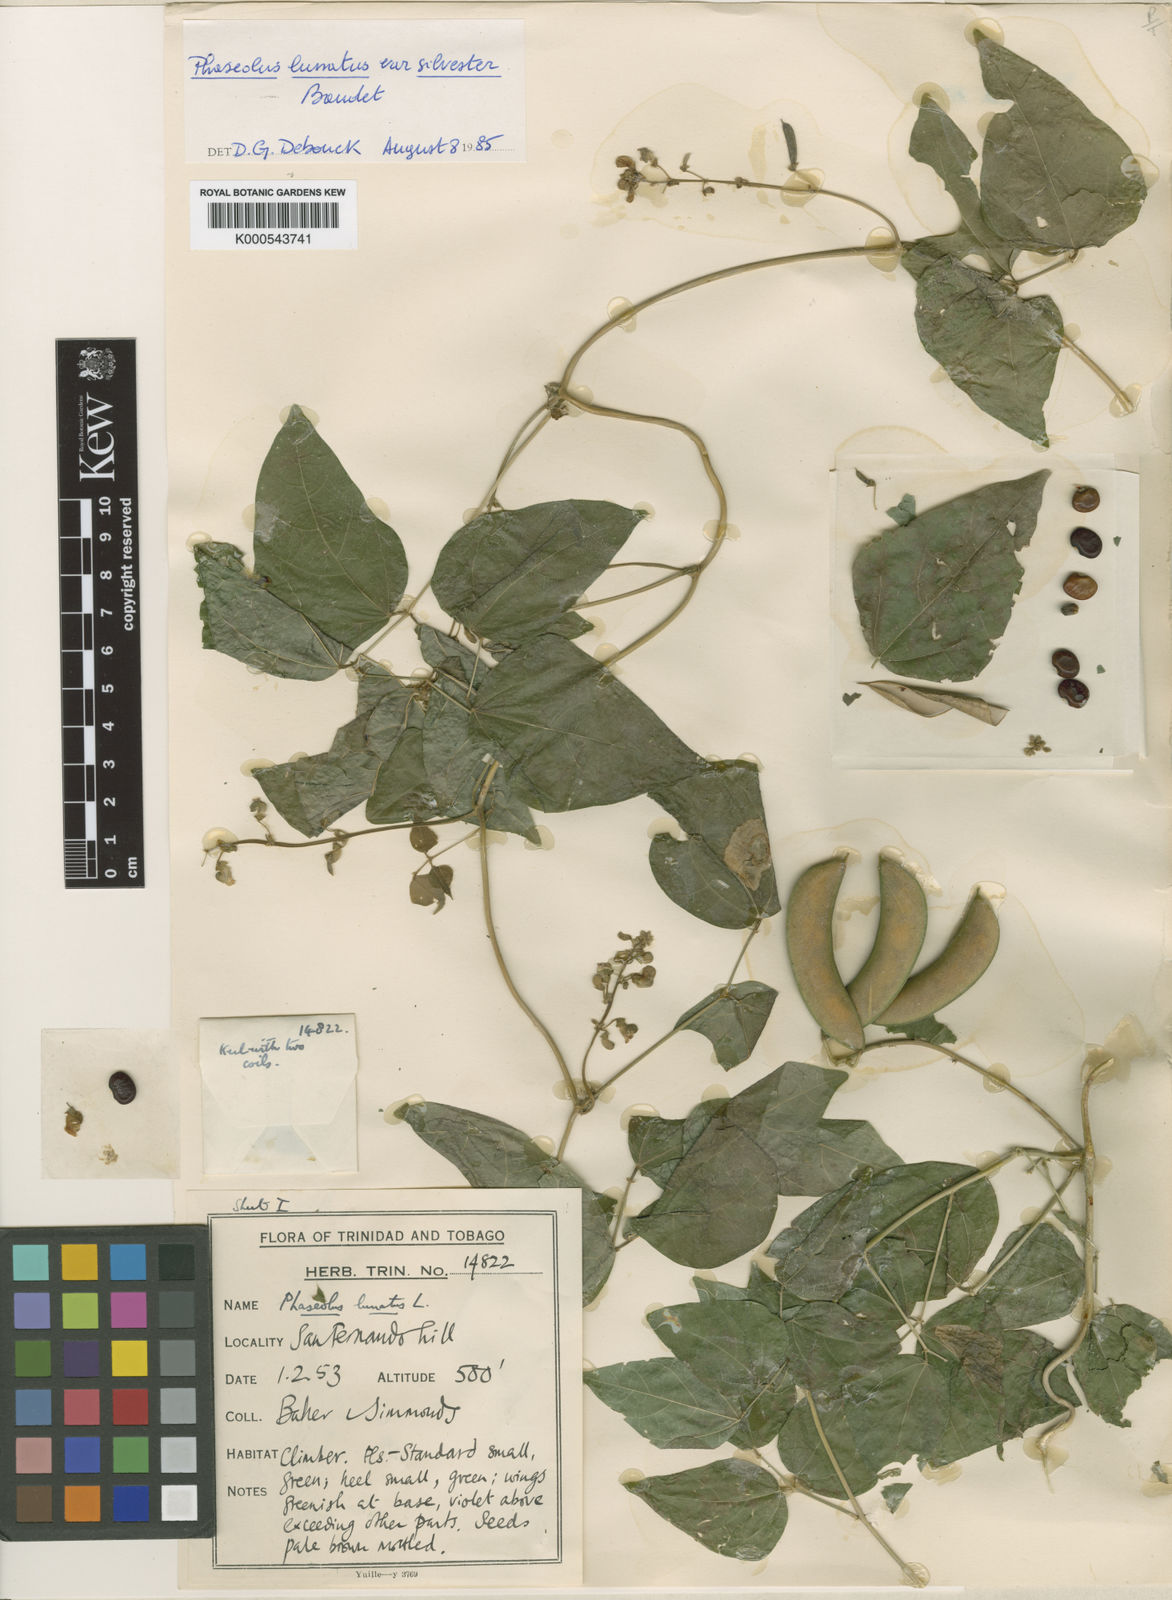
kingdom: Plantae
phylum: Tracheophyta
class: Magnoliopsida
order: Fabales
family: Fabaceae
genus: Phaseolus
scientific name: Phaseolus lunatus
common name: Sieva bean
